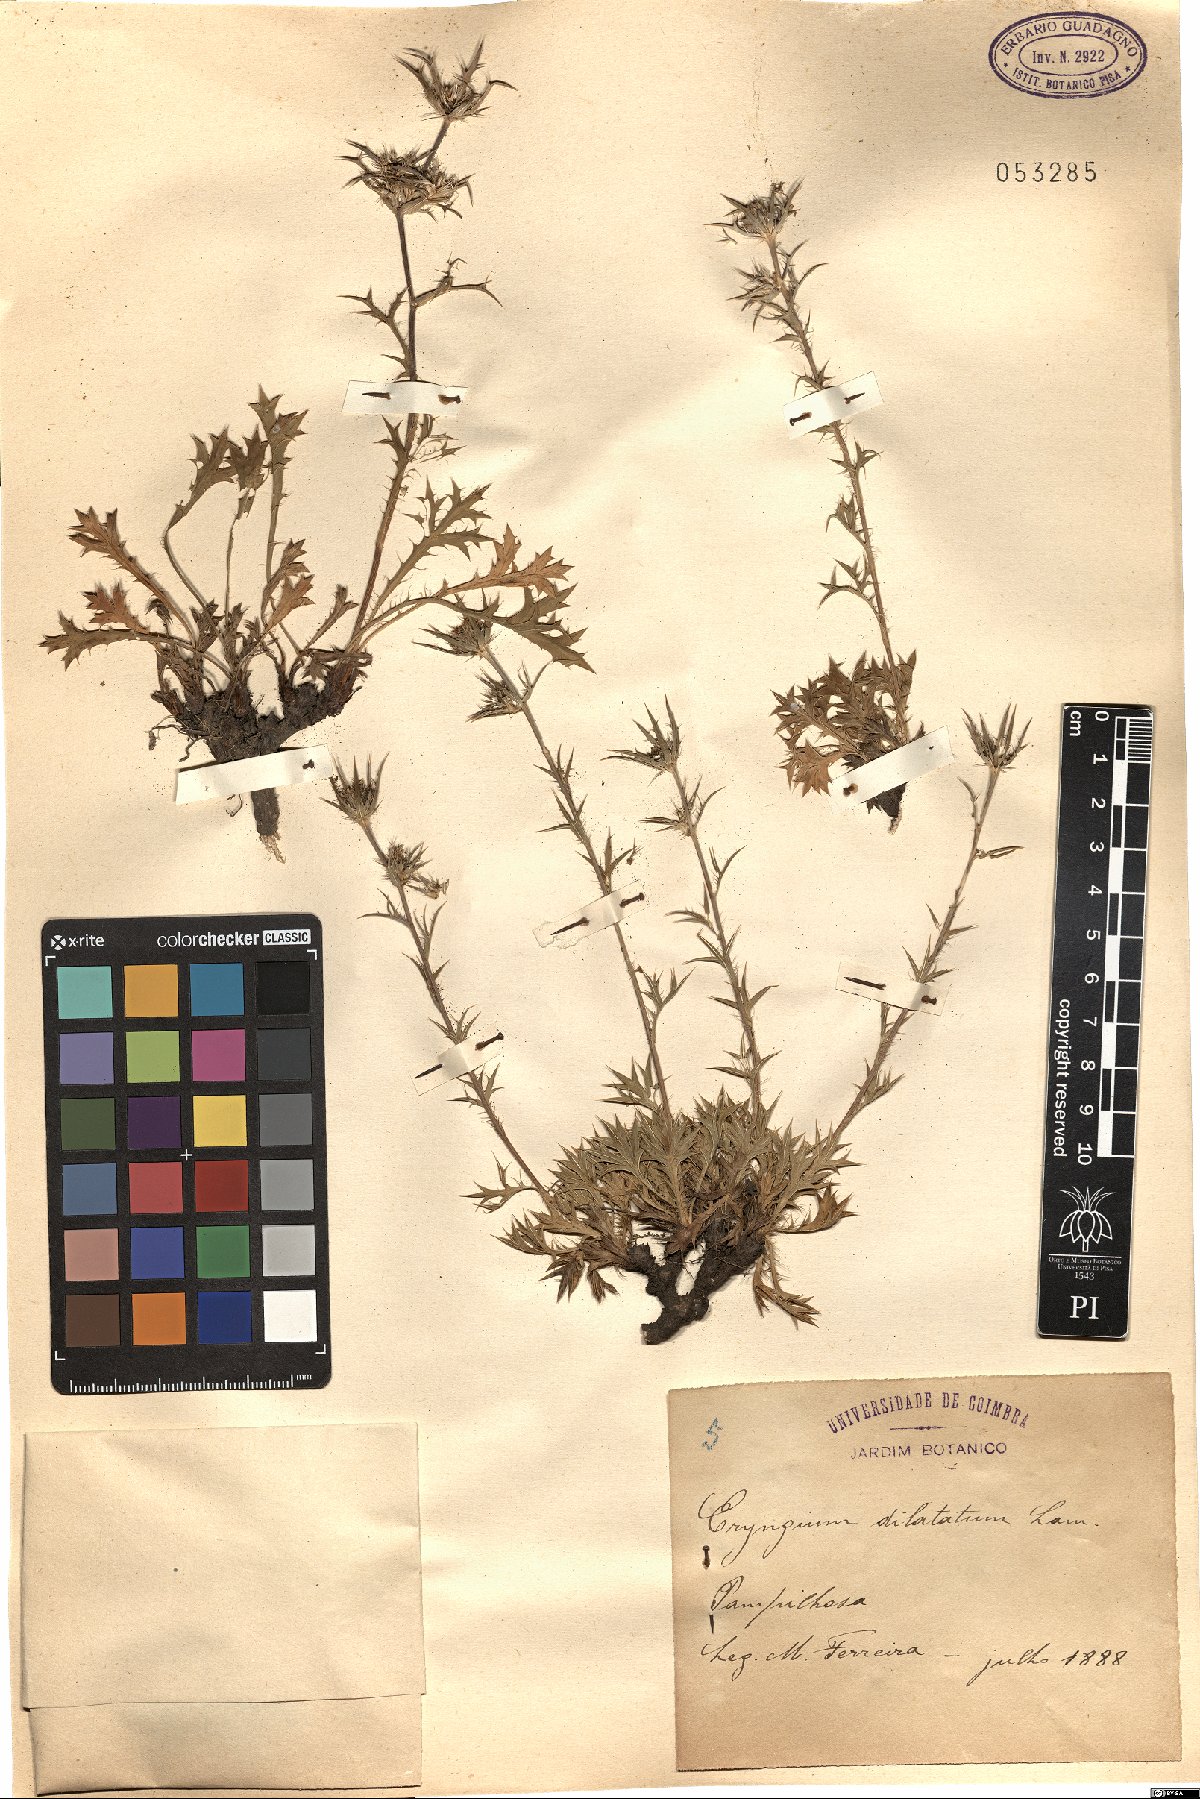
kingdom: Plantae
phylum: Tracheophyta
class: Magnoliopsida
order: Apiales
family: Apiaceae
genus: Eryngium
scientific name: Eryngium dilatatum
